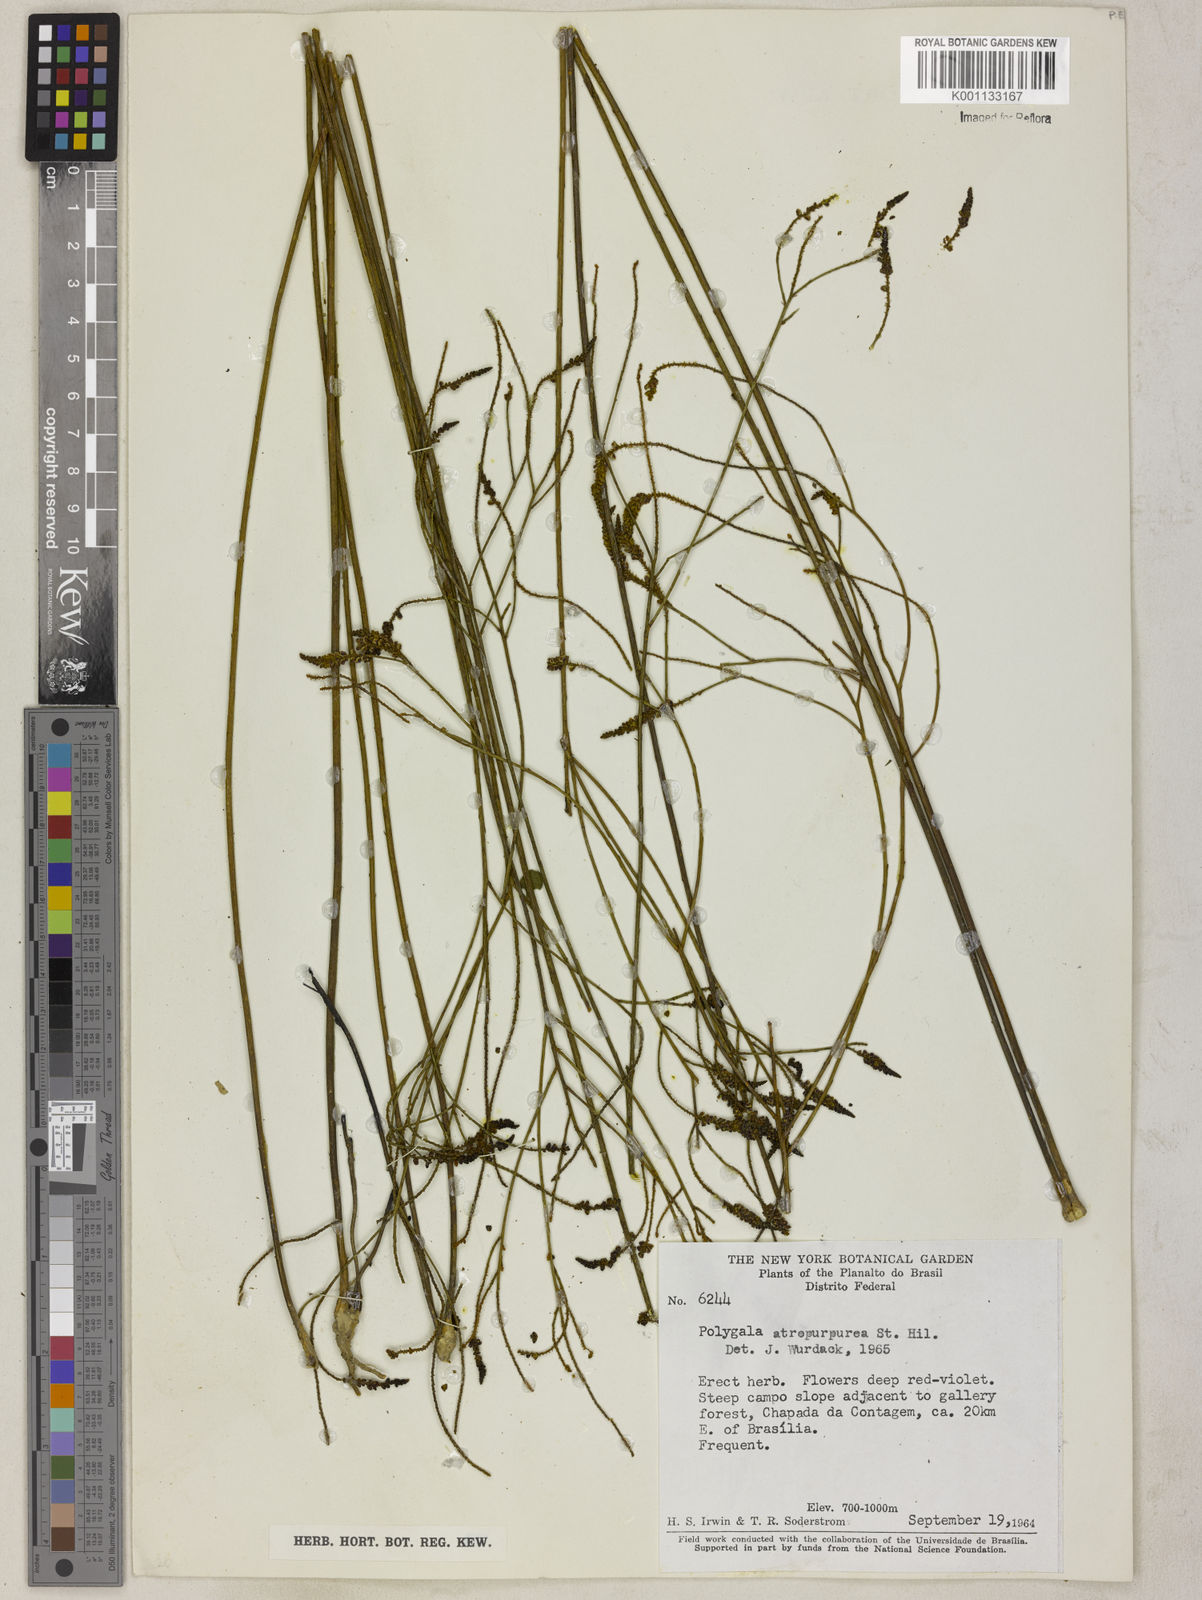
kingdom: Plantae
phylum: Tracheophyta
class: Magnoliopsida
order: Fabales
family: Polygalaceae
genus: Polygala
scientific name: Polygala atropurpurea
